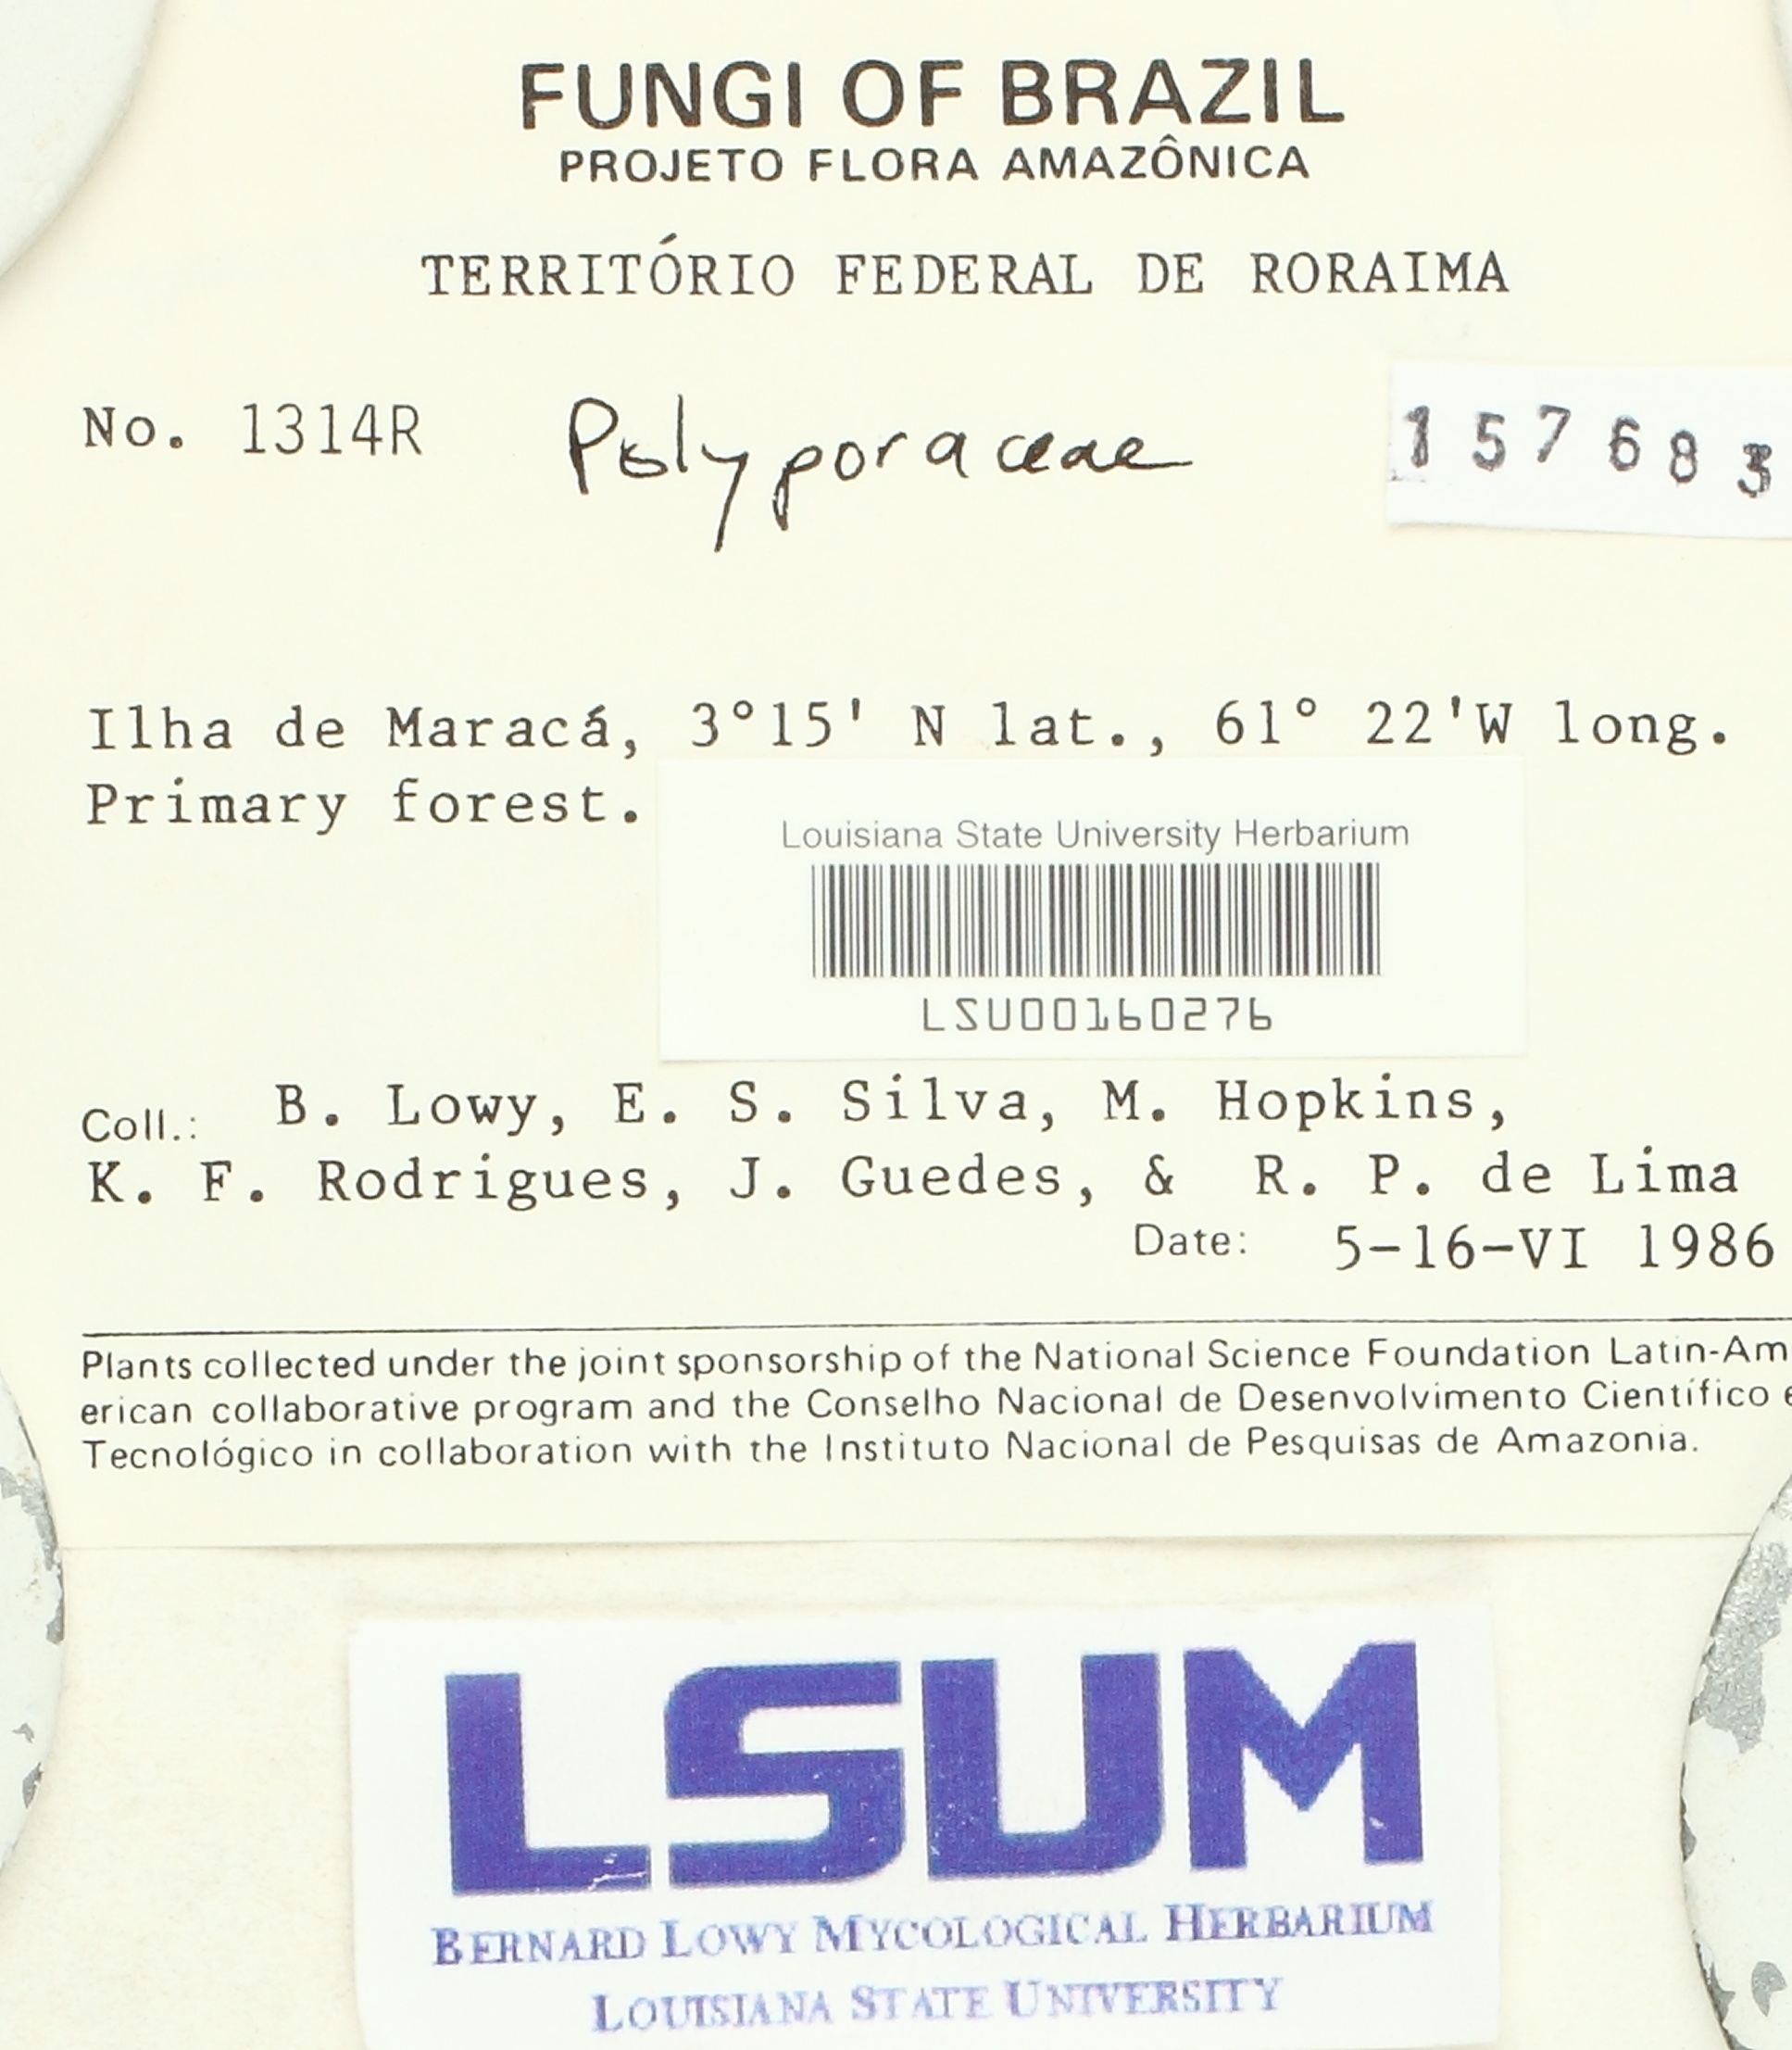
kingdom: Fungi
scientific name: Fungi
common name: Fungi
